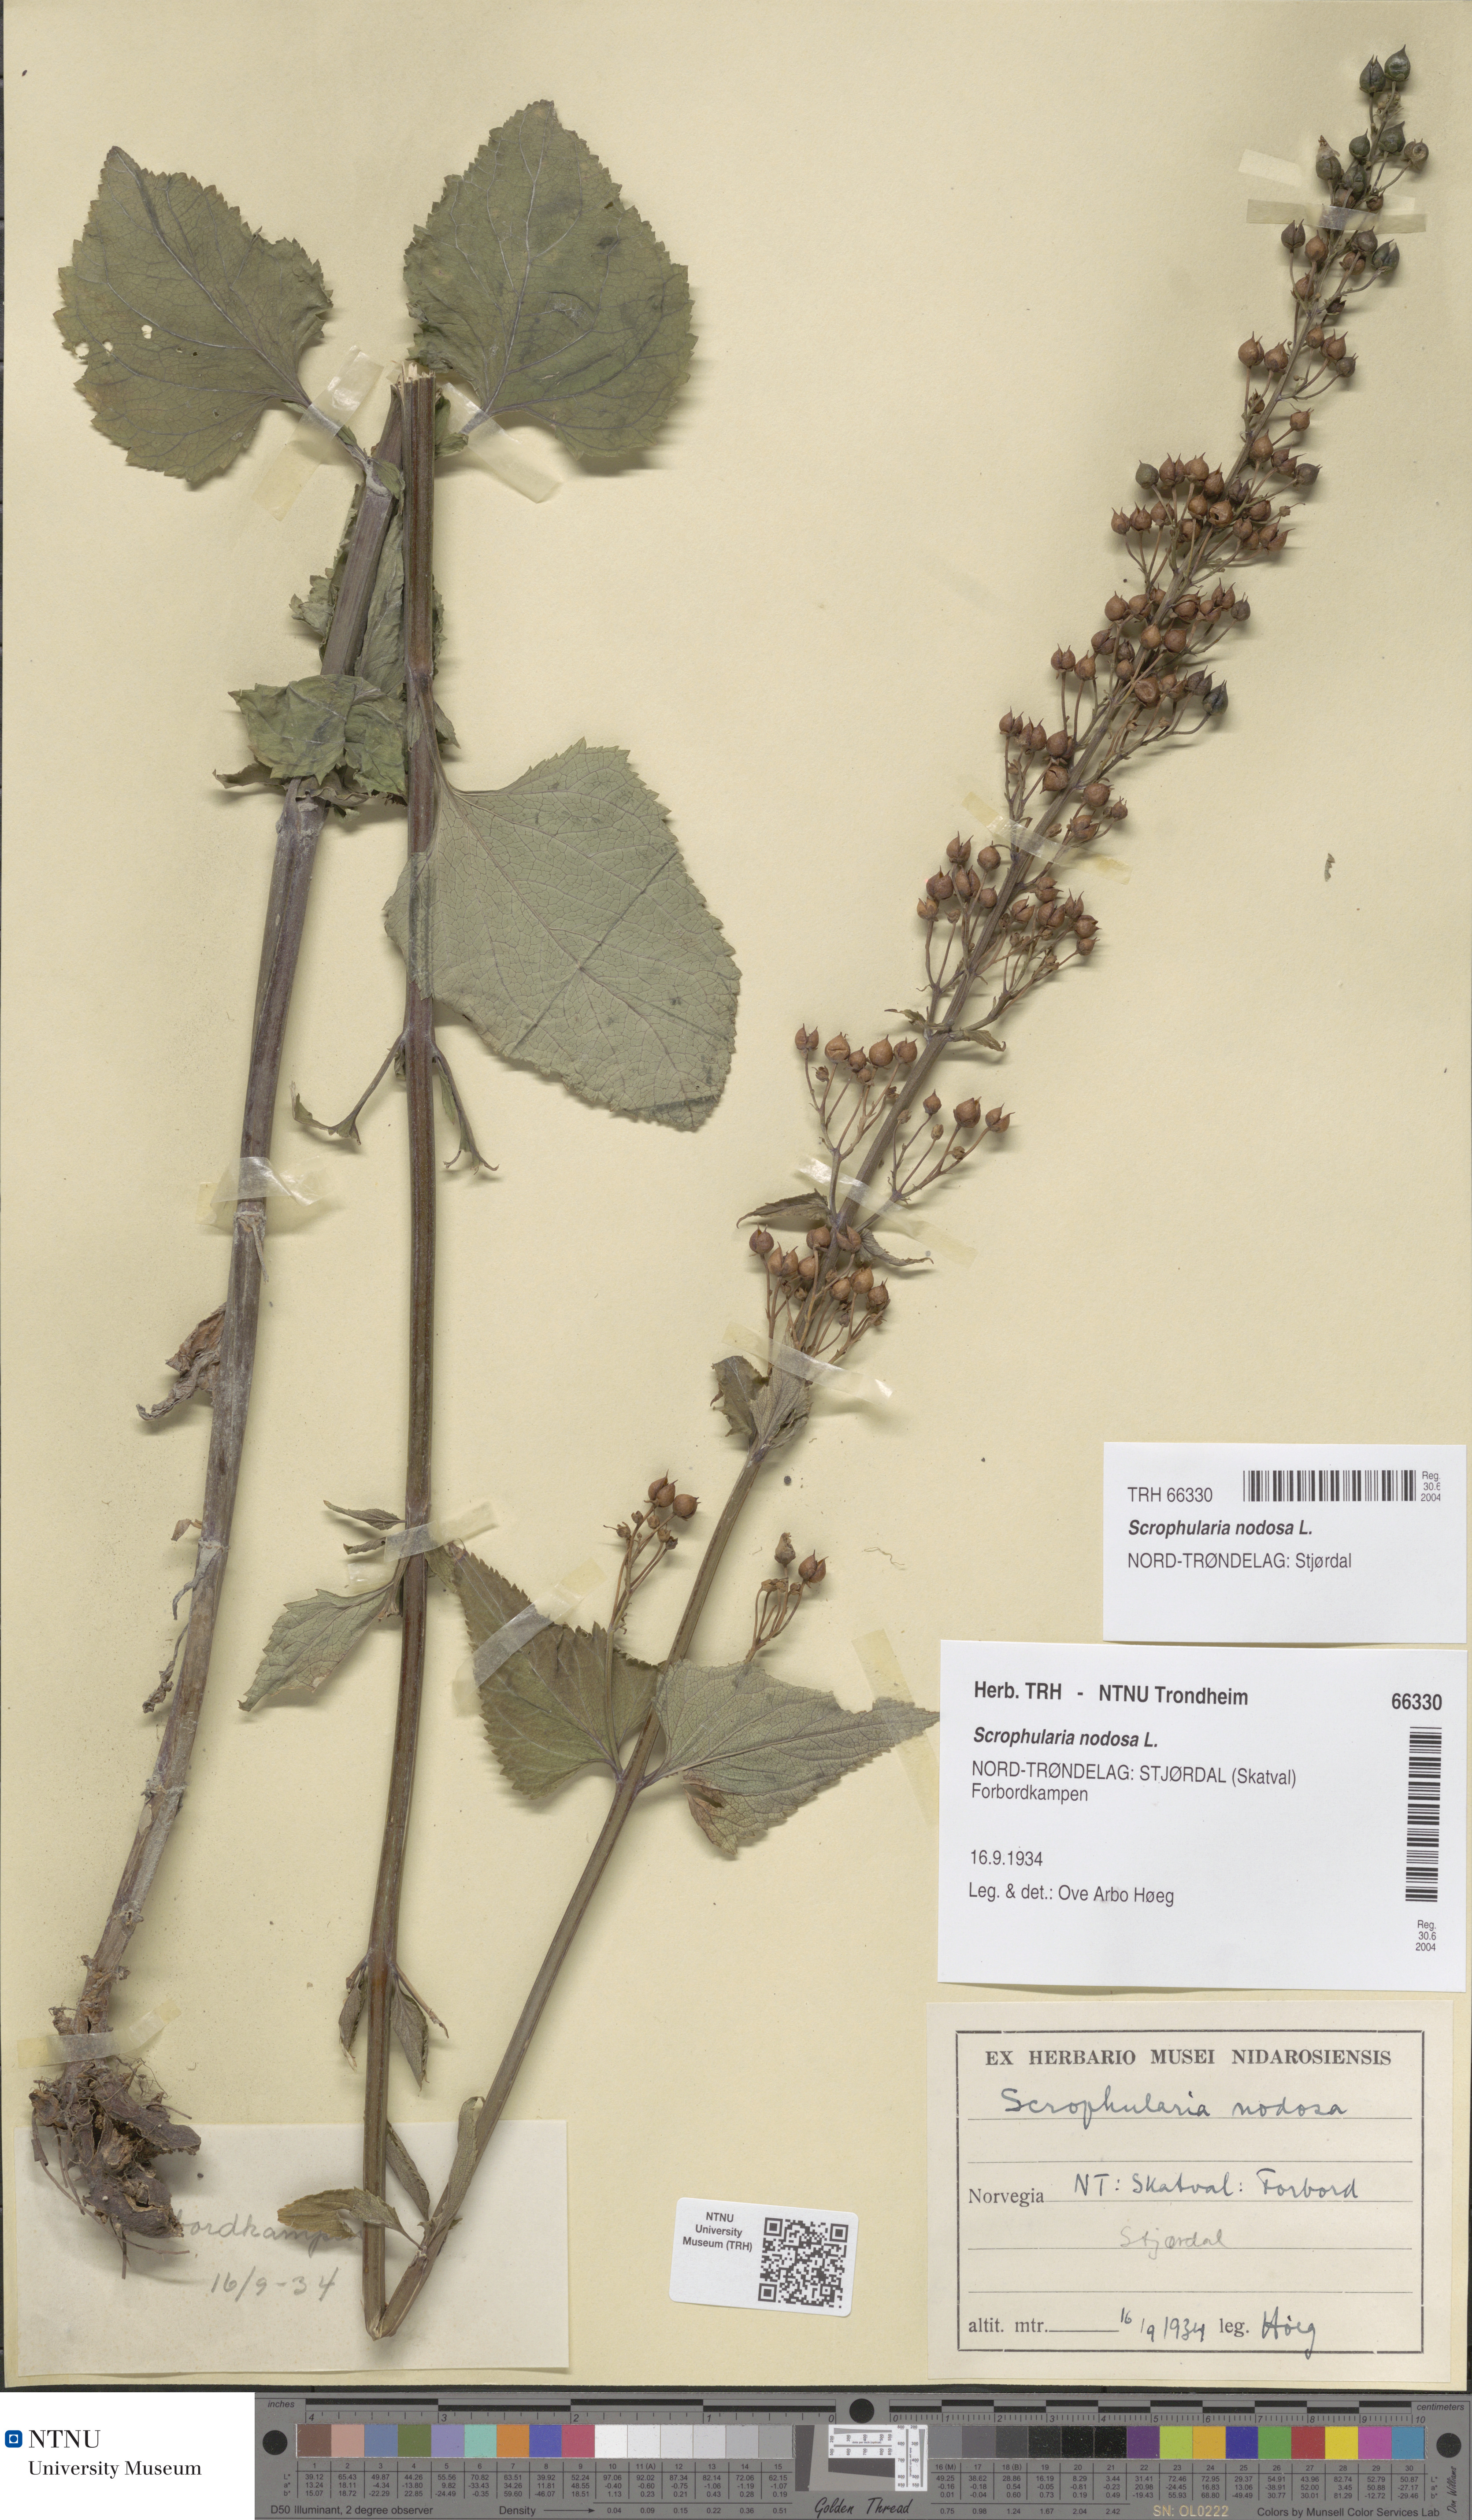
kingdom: Plantae
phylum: Tracheophyta
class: Magnoliopsida
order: Lamiales
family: Scrophulariaceae
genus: Scrophularia
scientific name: Scrophularia nodosa
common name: Common figwort
